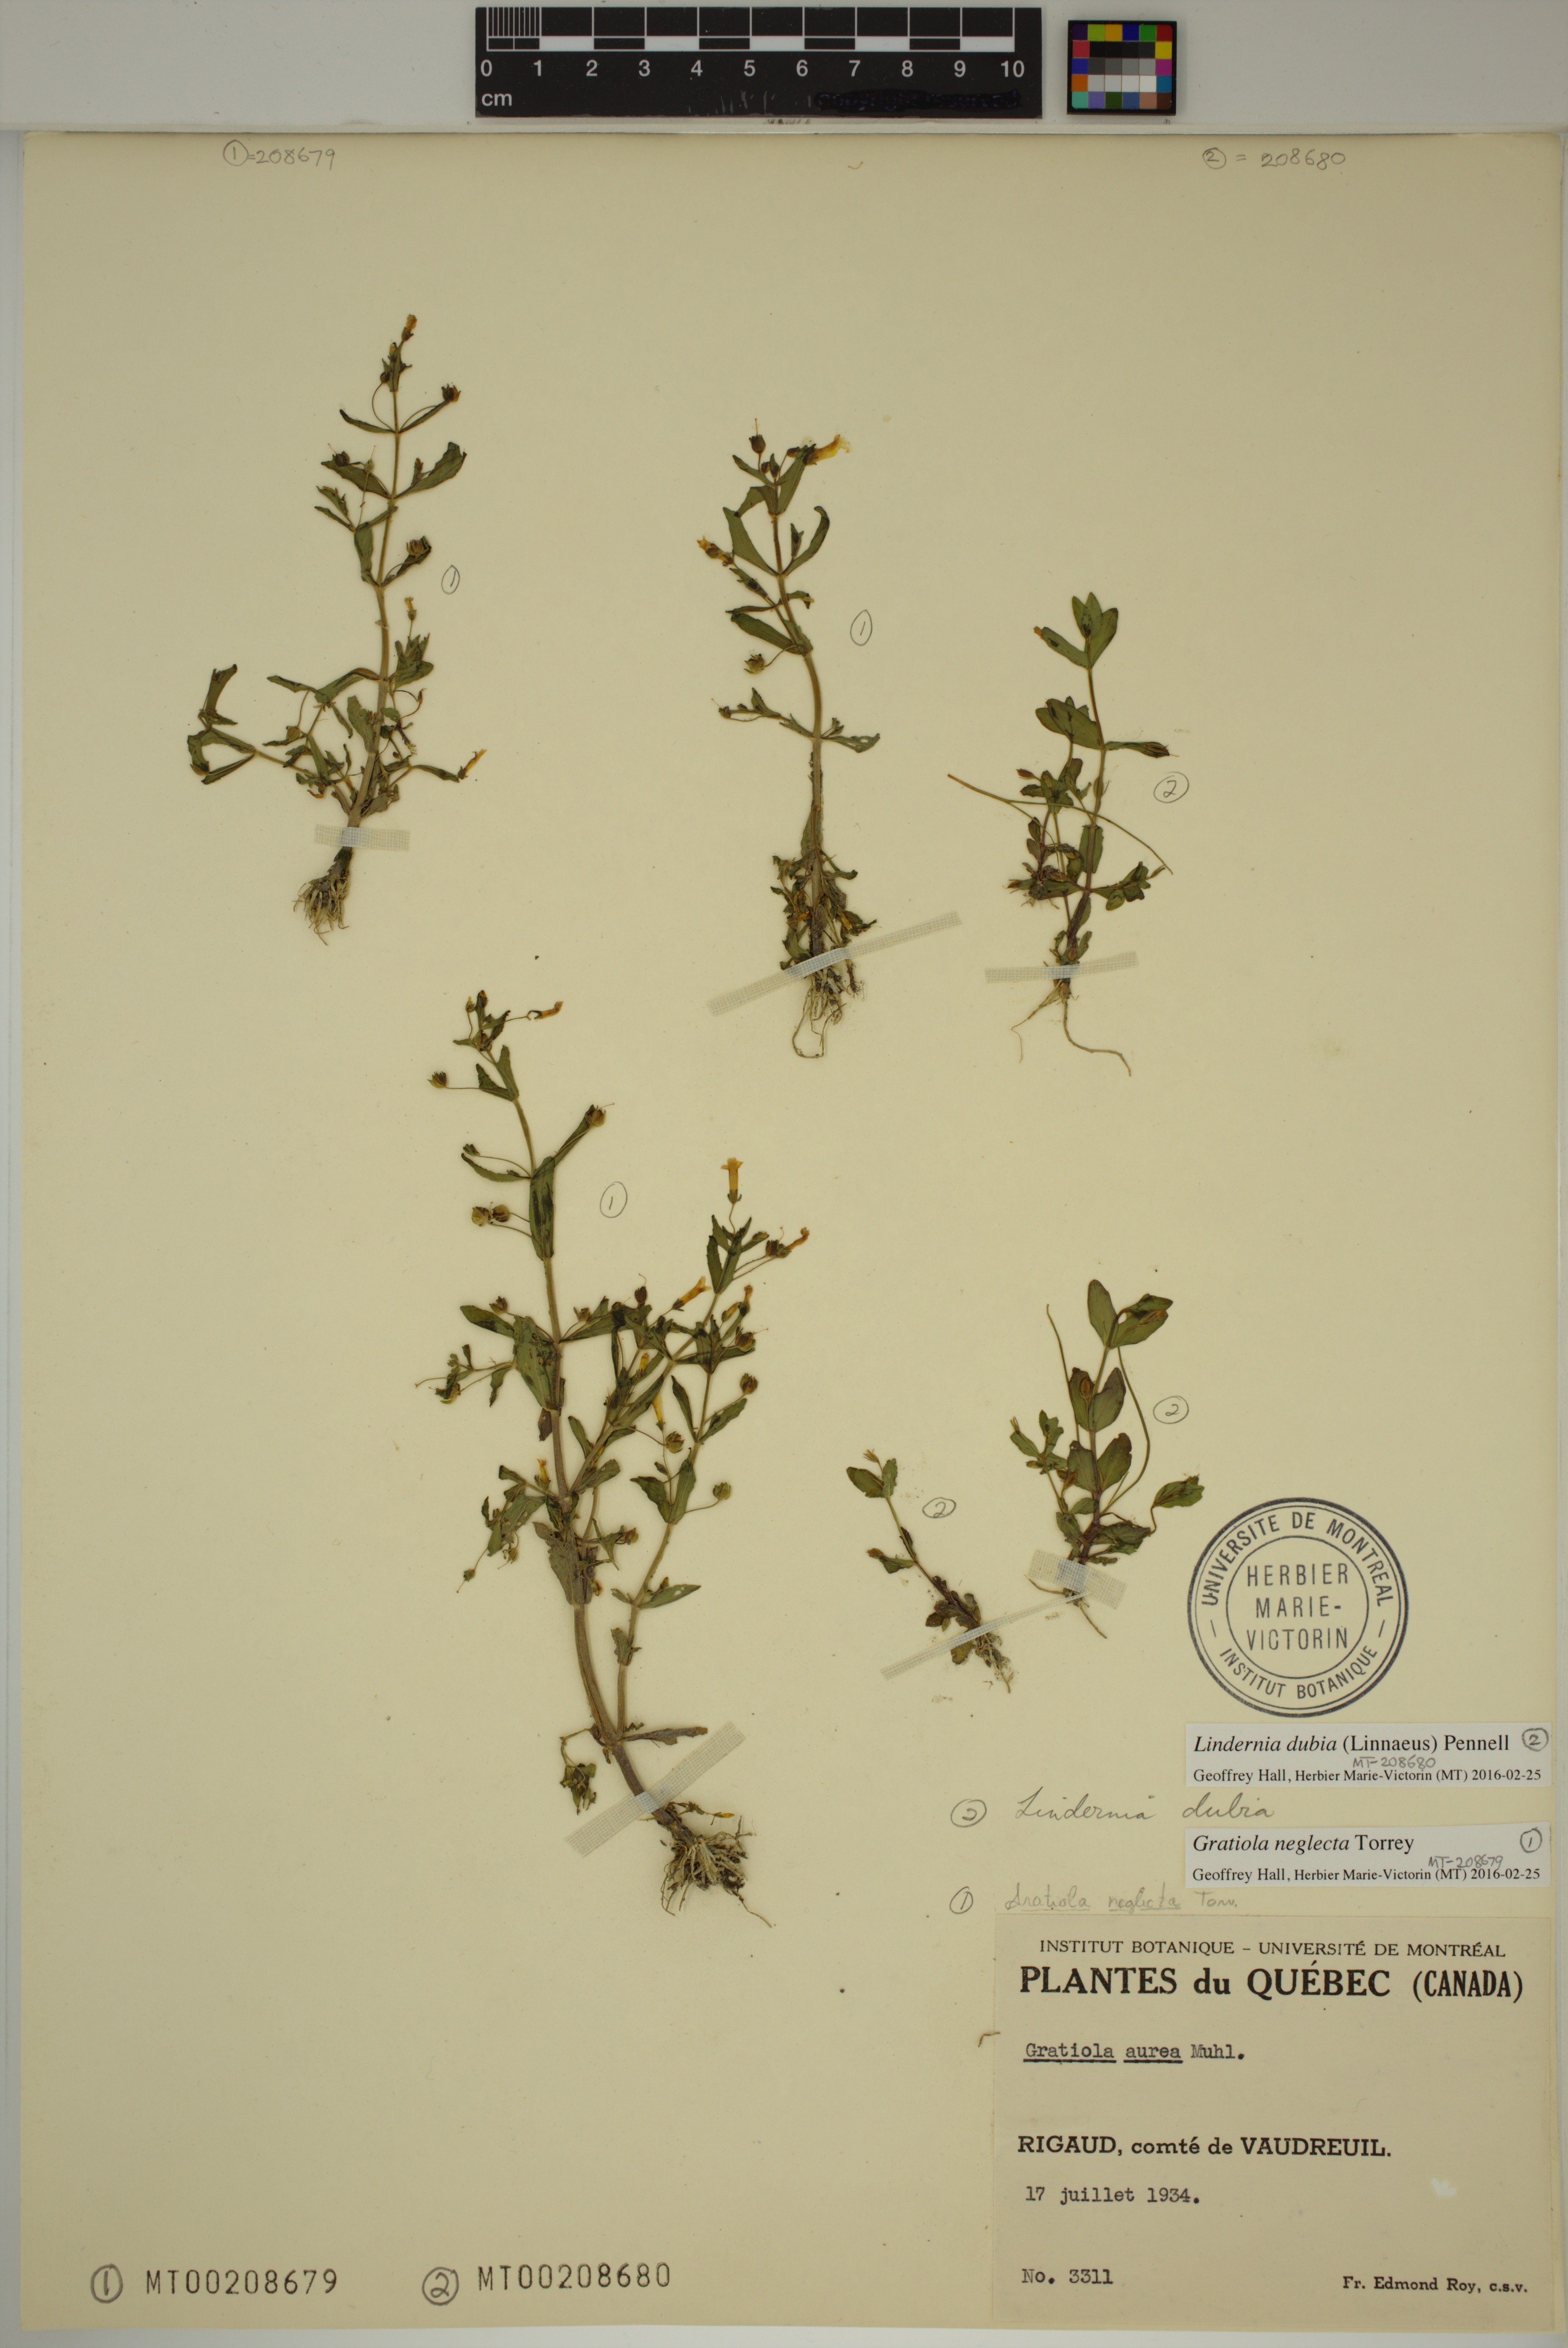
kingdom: Plantae
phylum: Tracheophyta
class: Magnoliopsida
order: Lamiales
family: Plantaginaceae
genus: Gratiola
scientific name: Gratiola neglecta
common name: American hedge-hyssop
